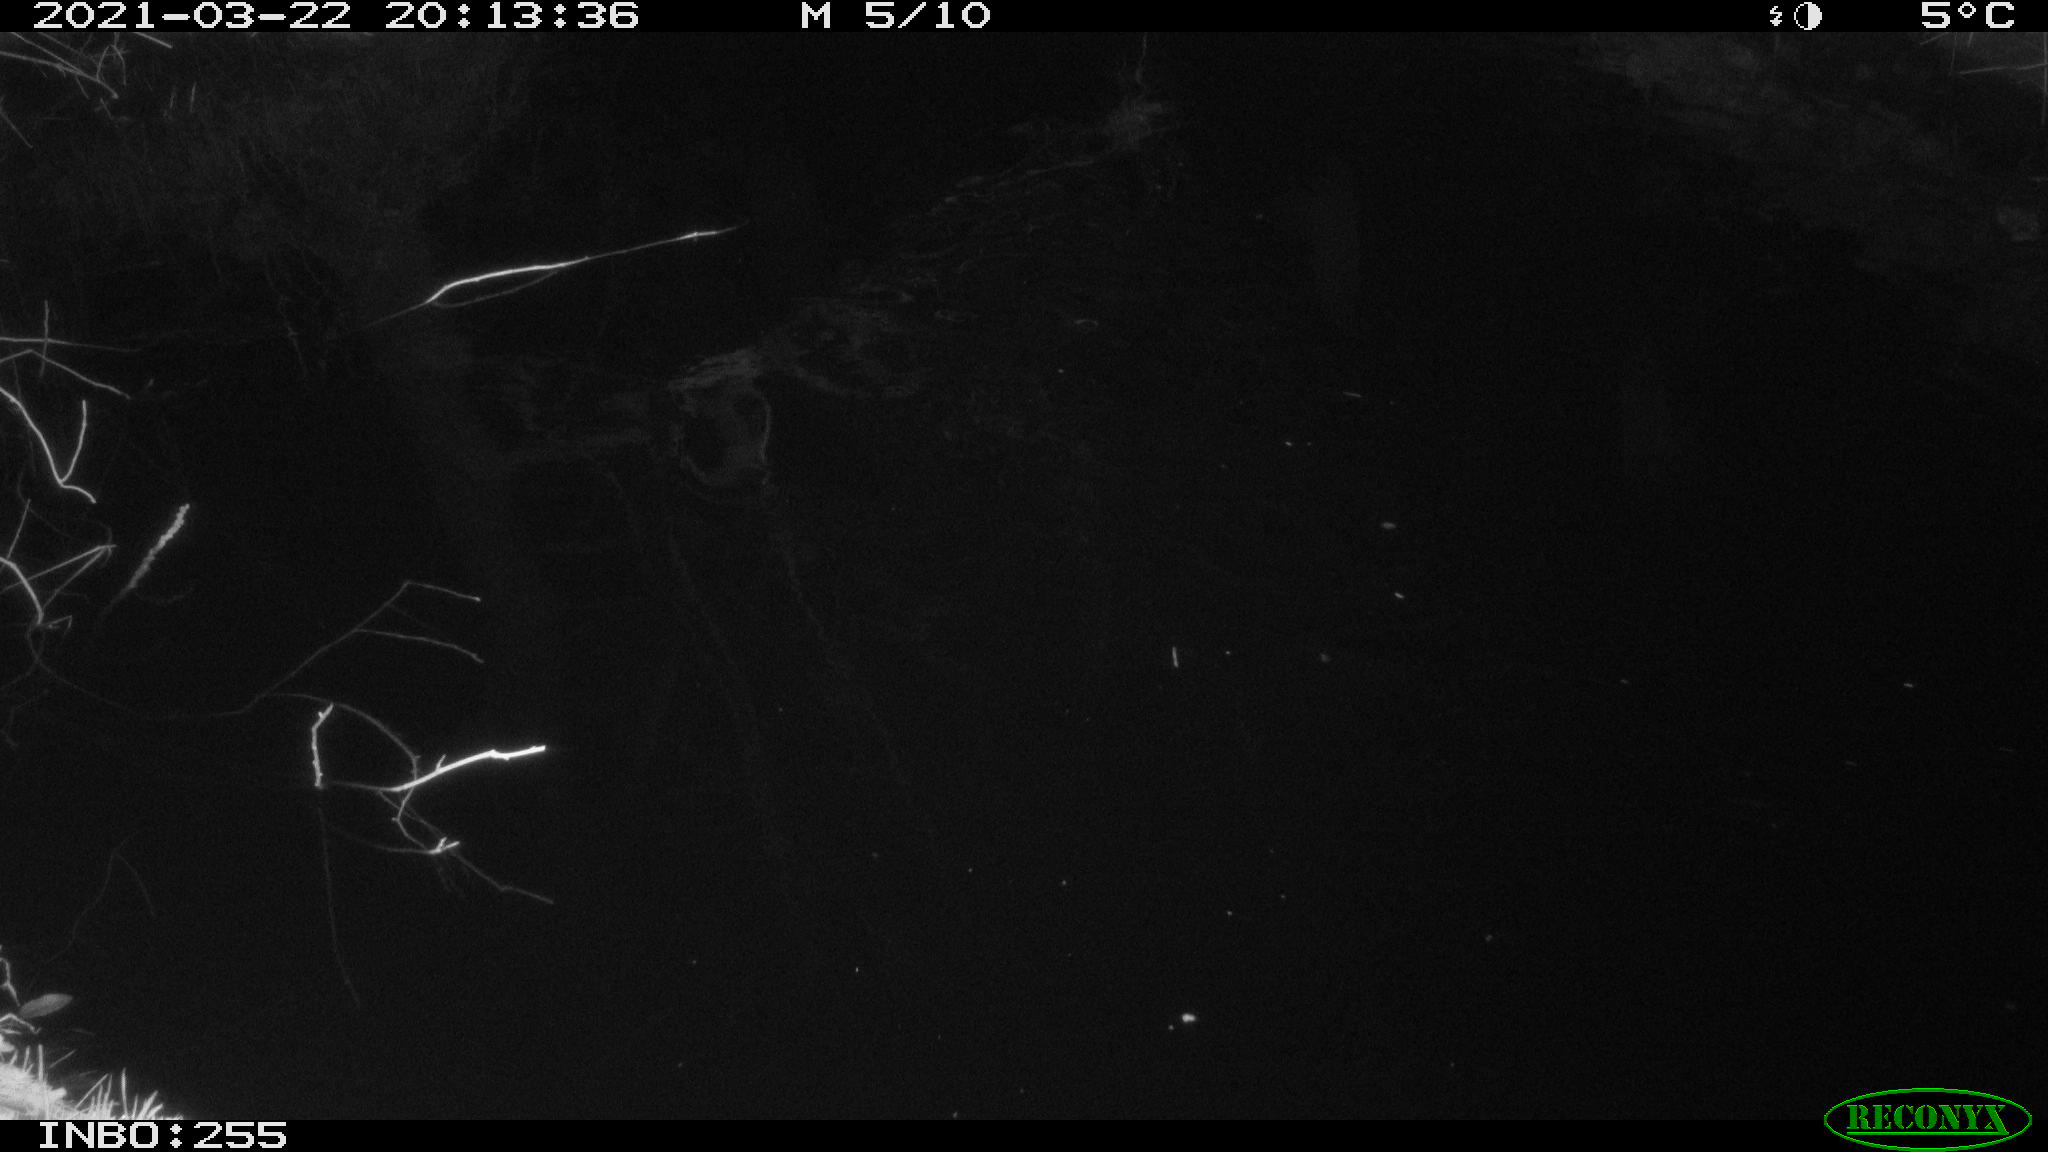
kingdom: Animalia
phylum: Chordata
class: Aves
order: Anseriformes
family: Anatidae
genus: Anas
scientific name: Anas platyrhynchos
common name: Mallard
